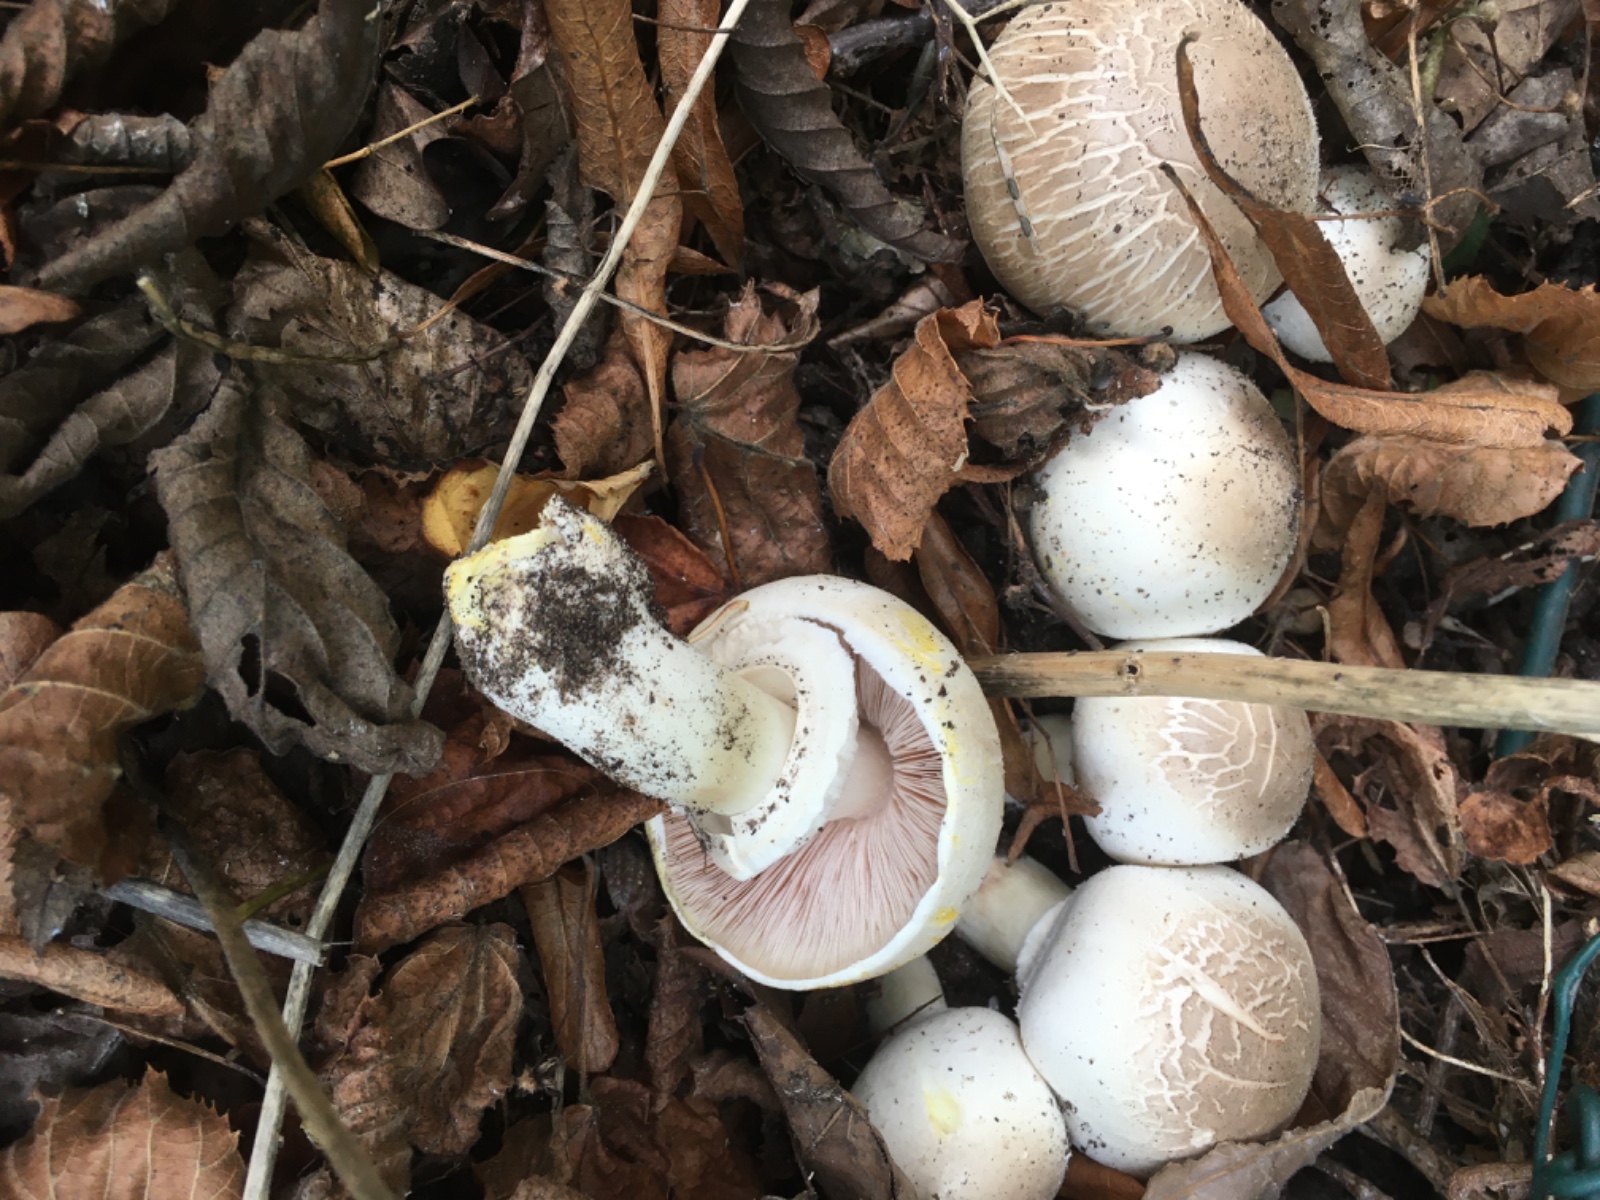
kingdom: Fungi
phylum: Basidiomycota
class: Agaricomycetes
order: Agaricales
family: Agaricaceae
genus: Agaricus
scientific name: Agaricus xanthodermus
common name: karbol-champignon
